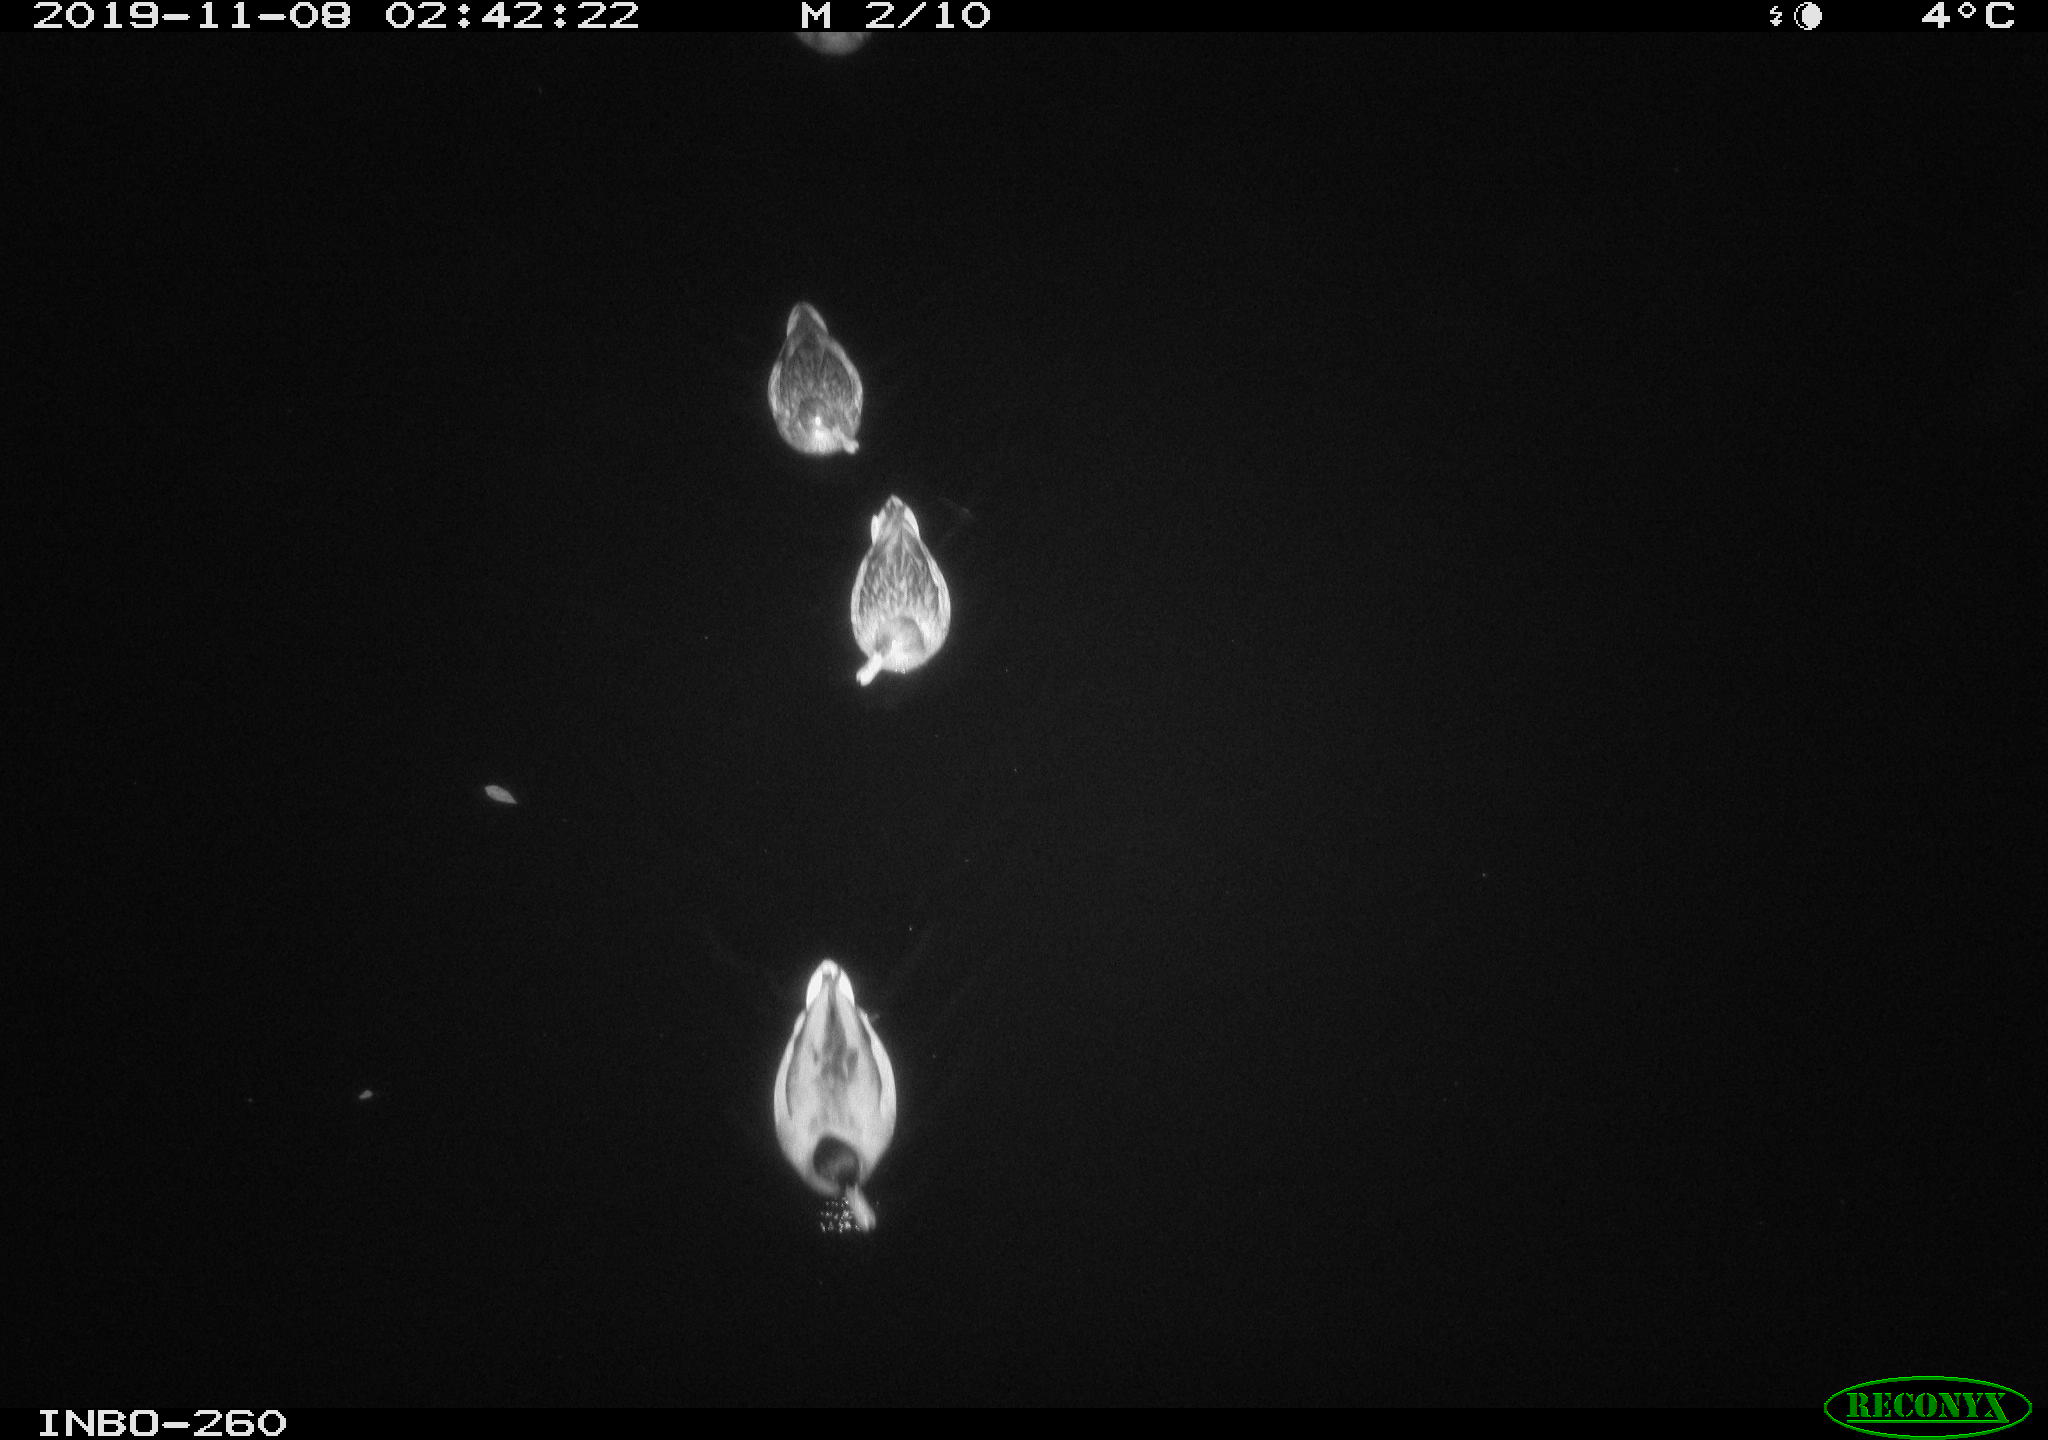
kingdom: Animalia
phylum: Chordata
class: Aves
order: Anseriformes
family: Anatidae
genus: Anas
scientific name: Anas platyrhynchos
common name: Mallard
